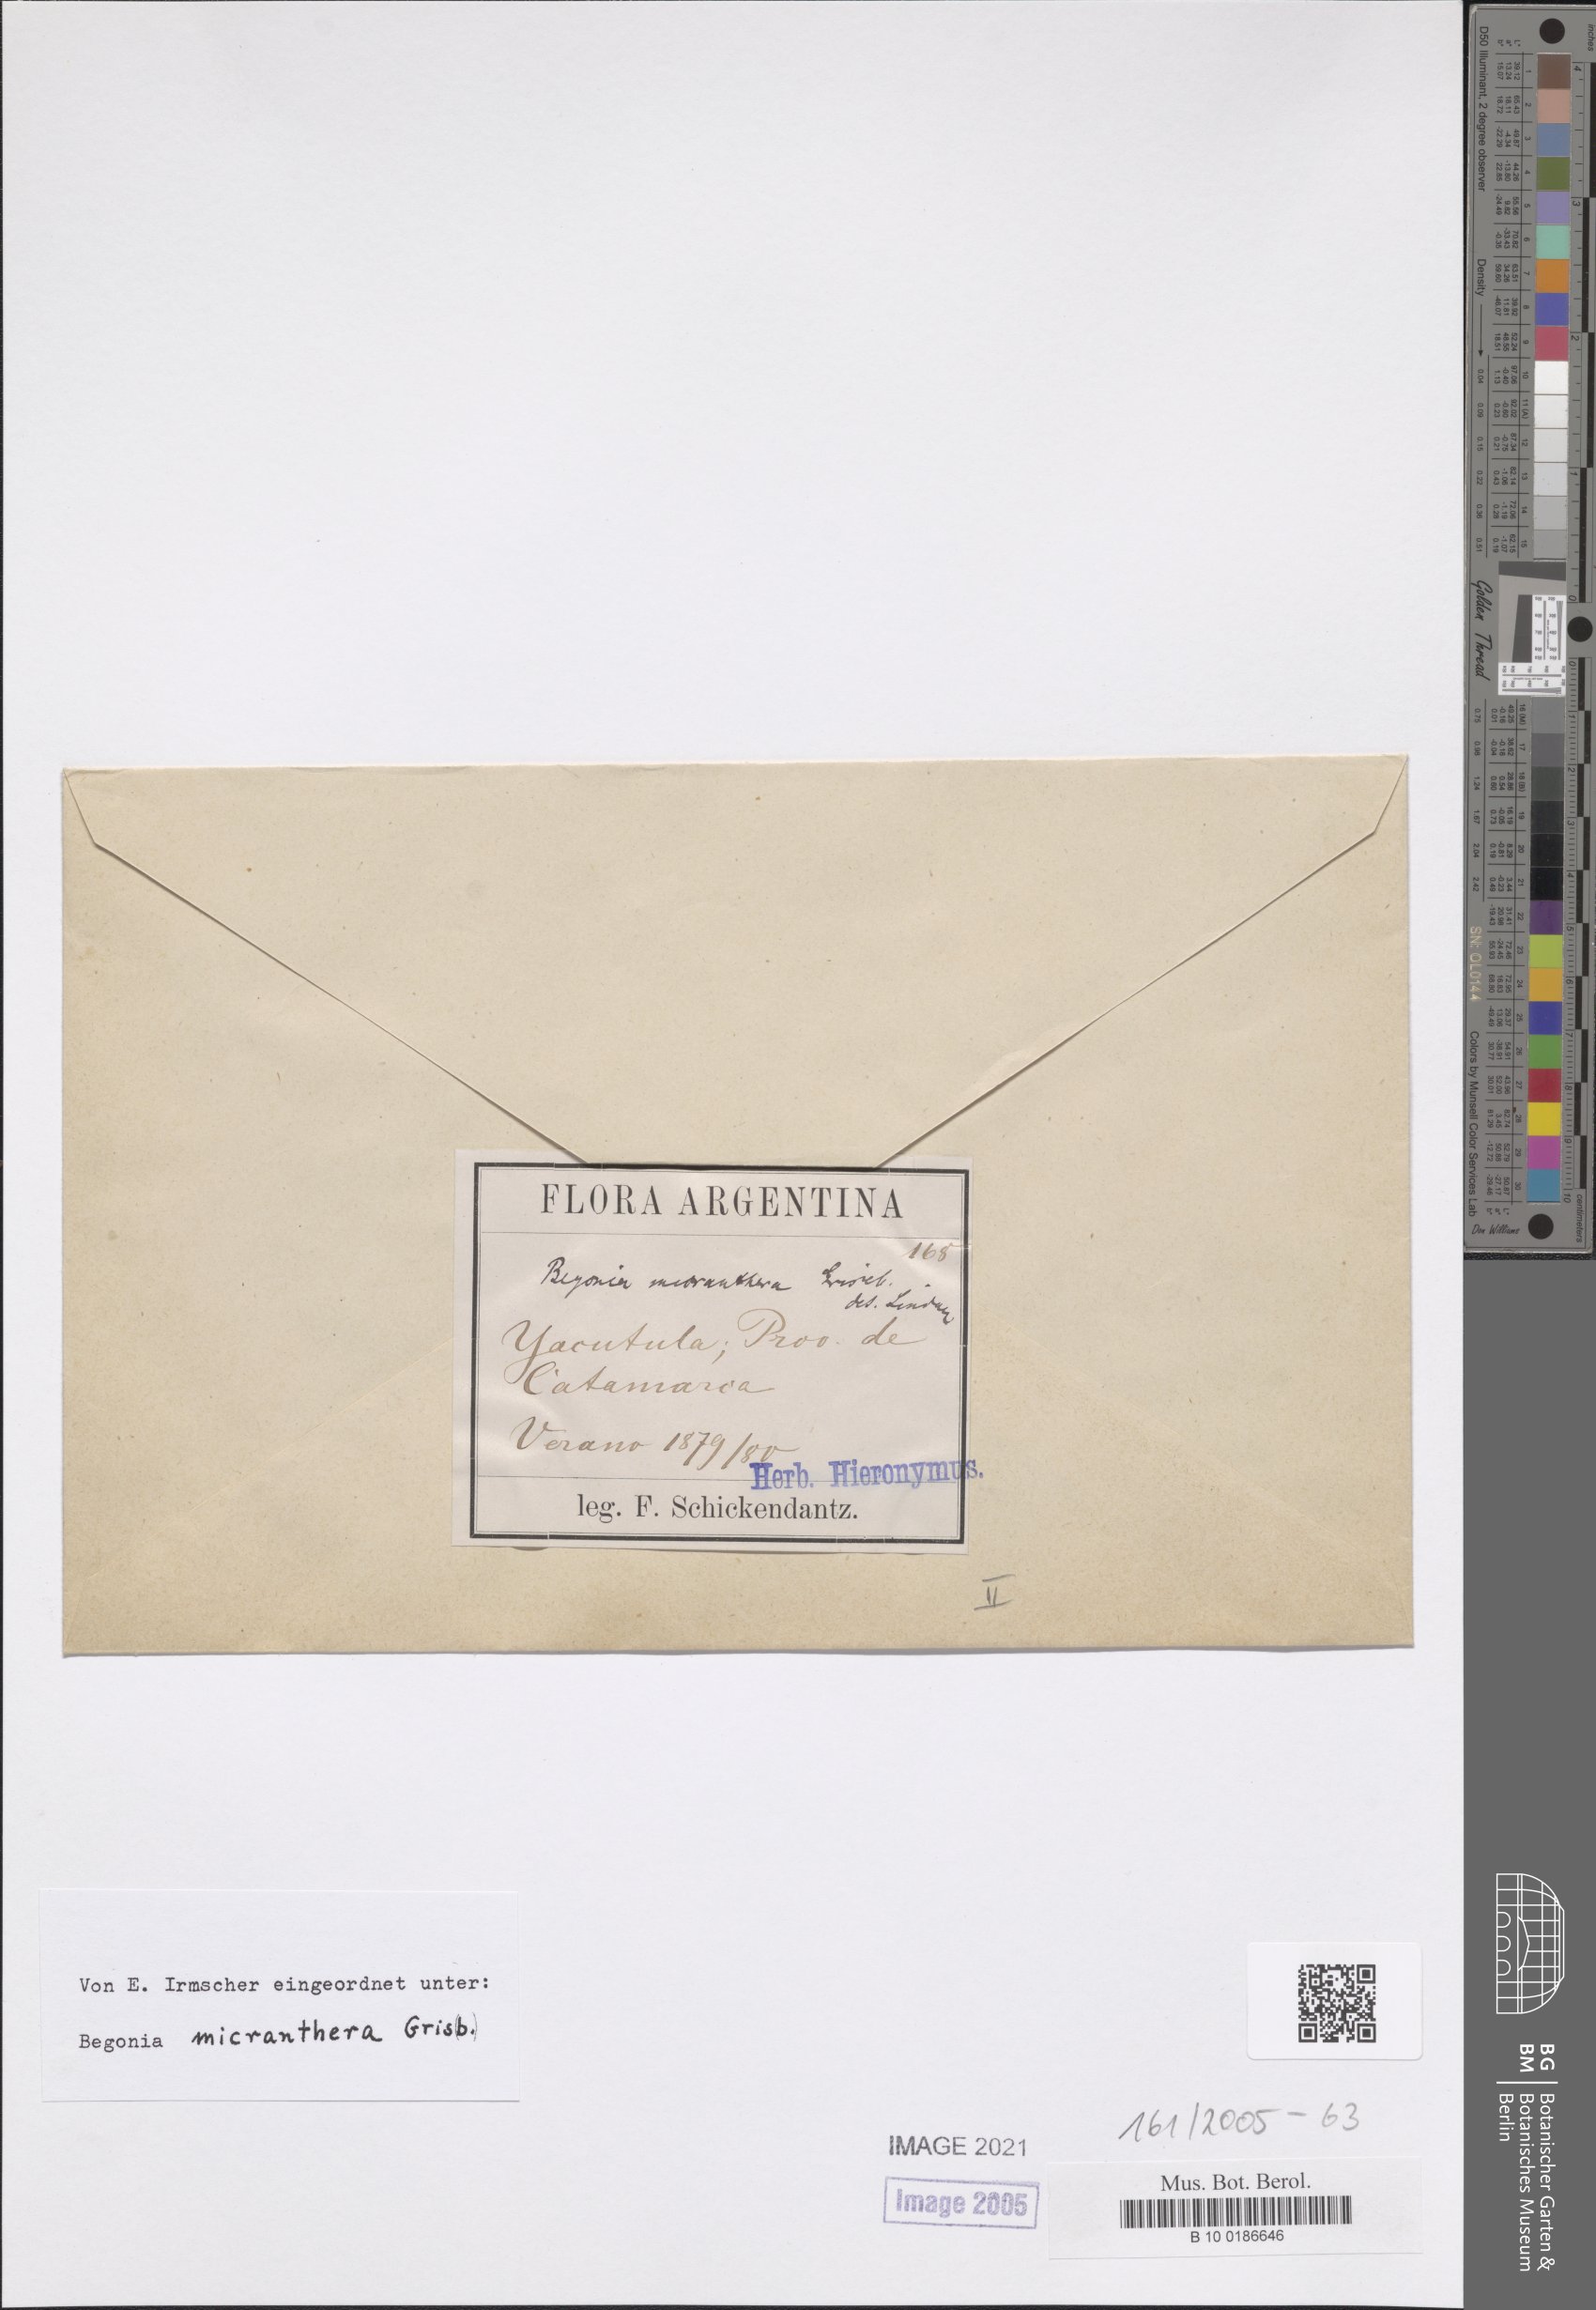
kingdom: Plantae
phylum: Tracheophyta
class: Magnoliopsida
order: Cucurbitales
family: Begoniaceae
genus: Begonia
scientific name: Begonia micranthera
